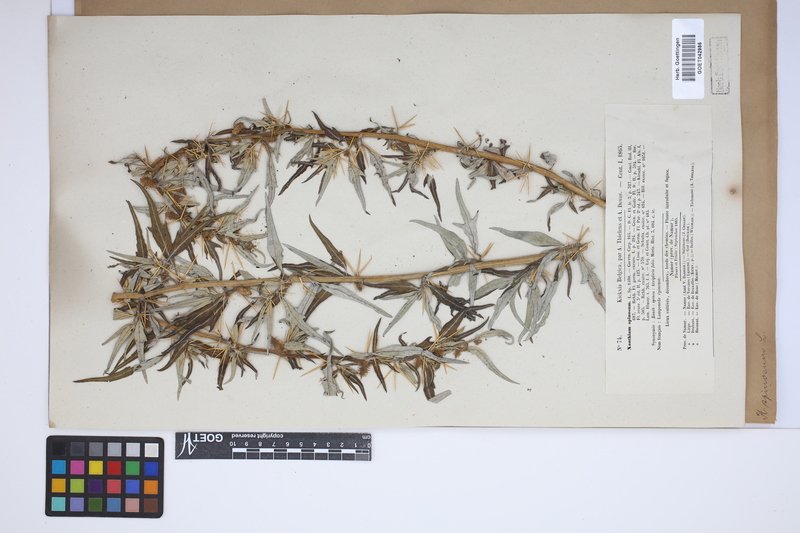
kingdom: Plantae
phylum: Tracheophyta
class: Magnoliopsida
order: Asterales
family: Asteraceae
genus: Xanthium
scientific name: Xanthium spinosum
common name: Spiny cocklebur
